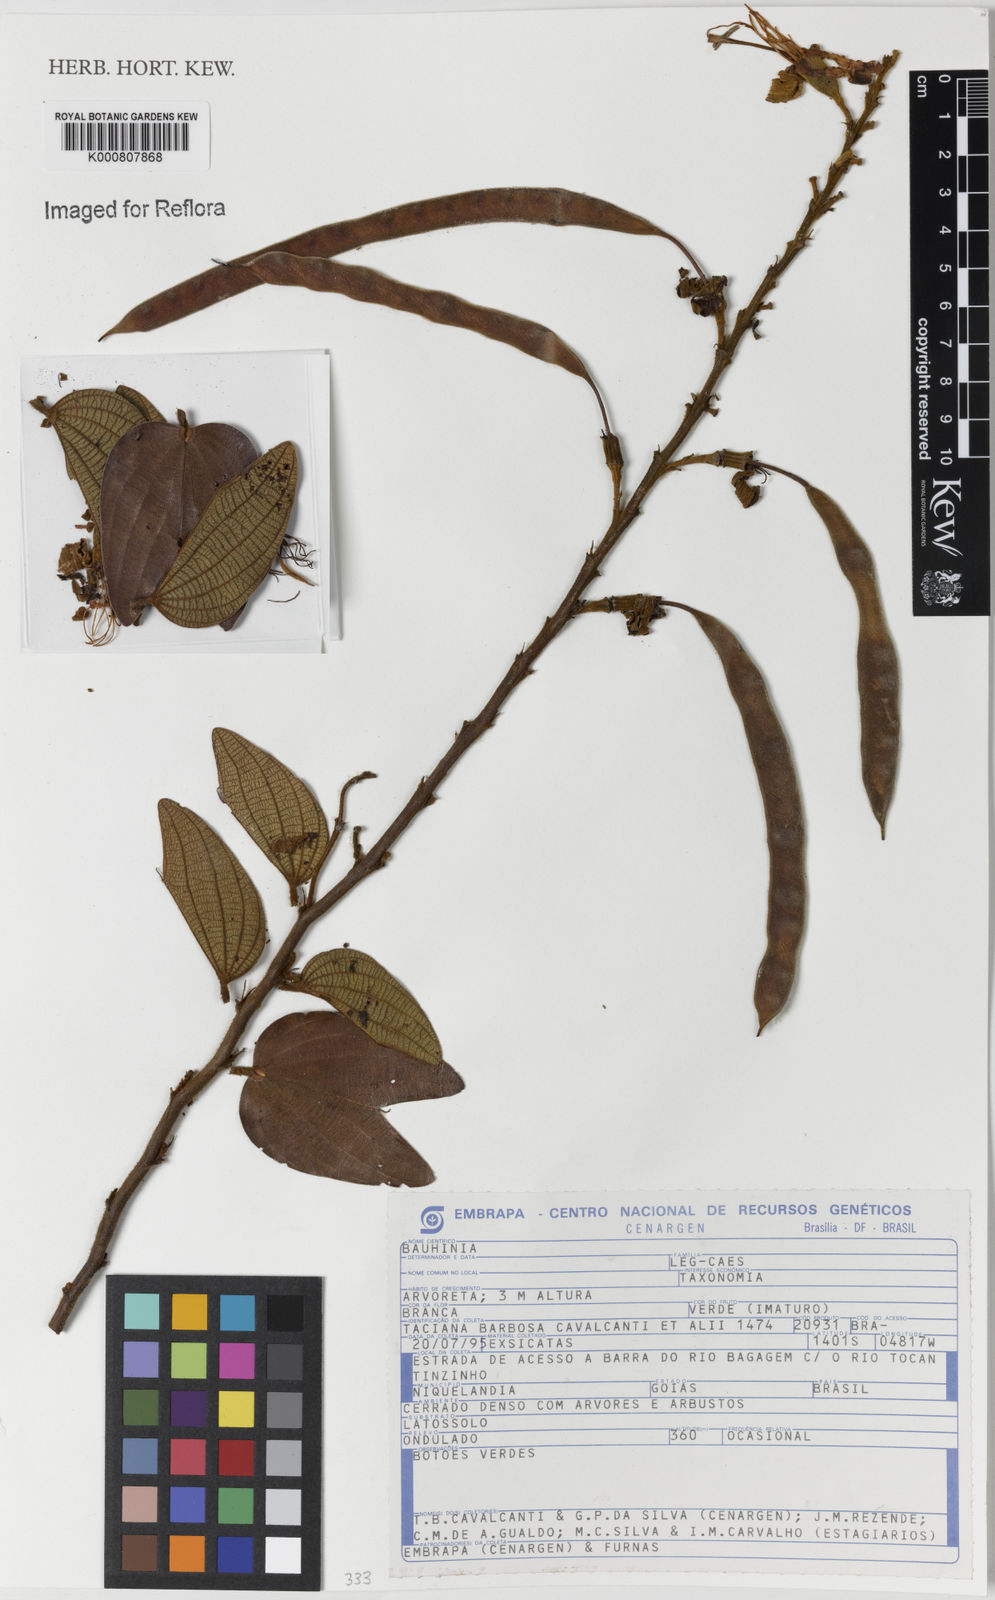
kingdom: Plantae
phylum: Tracheophyta
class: Magnoliopsida
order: Fabales
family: Fabaceae
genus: Bauhinia
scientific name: Bauhinia
